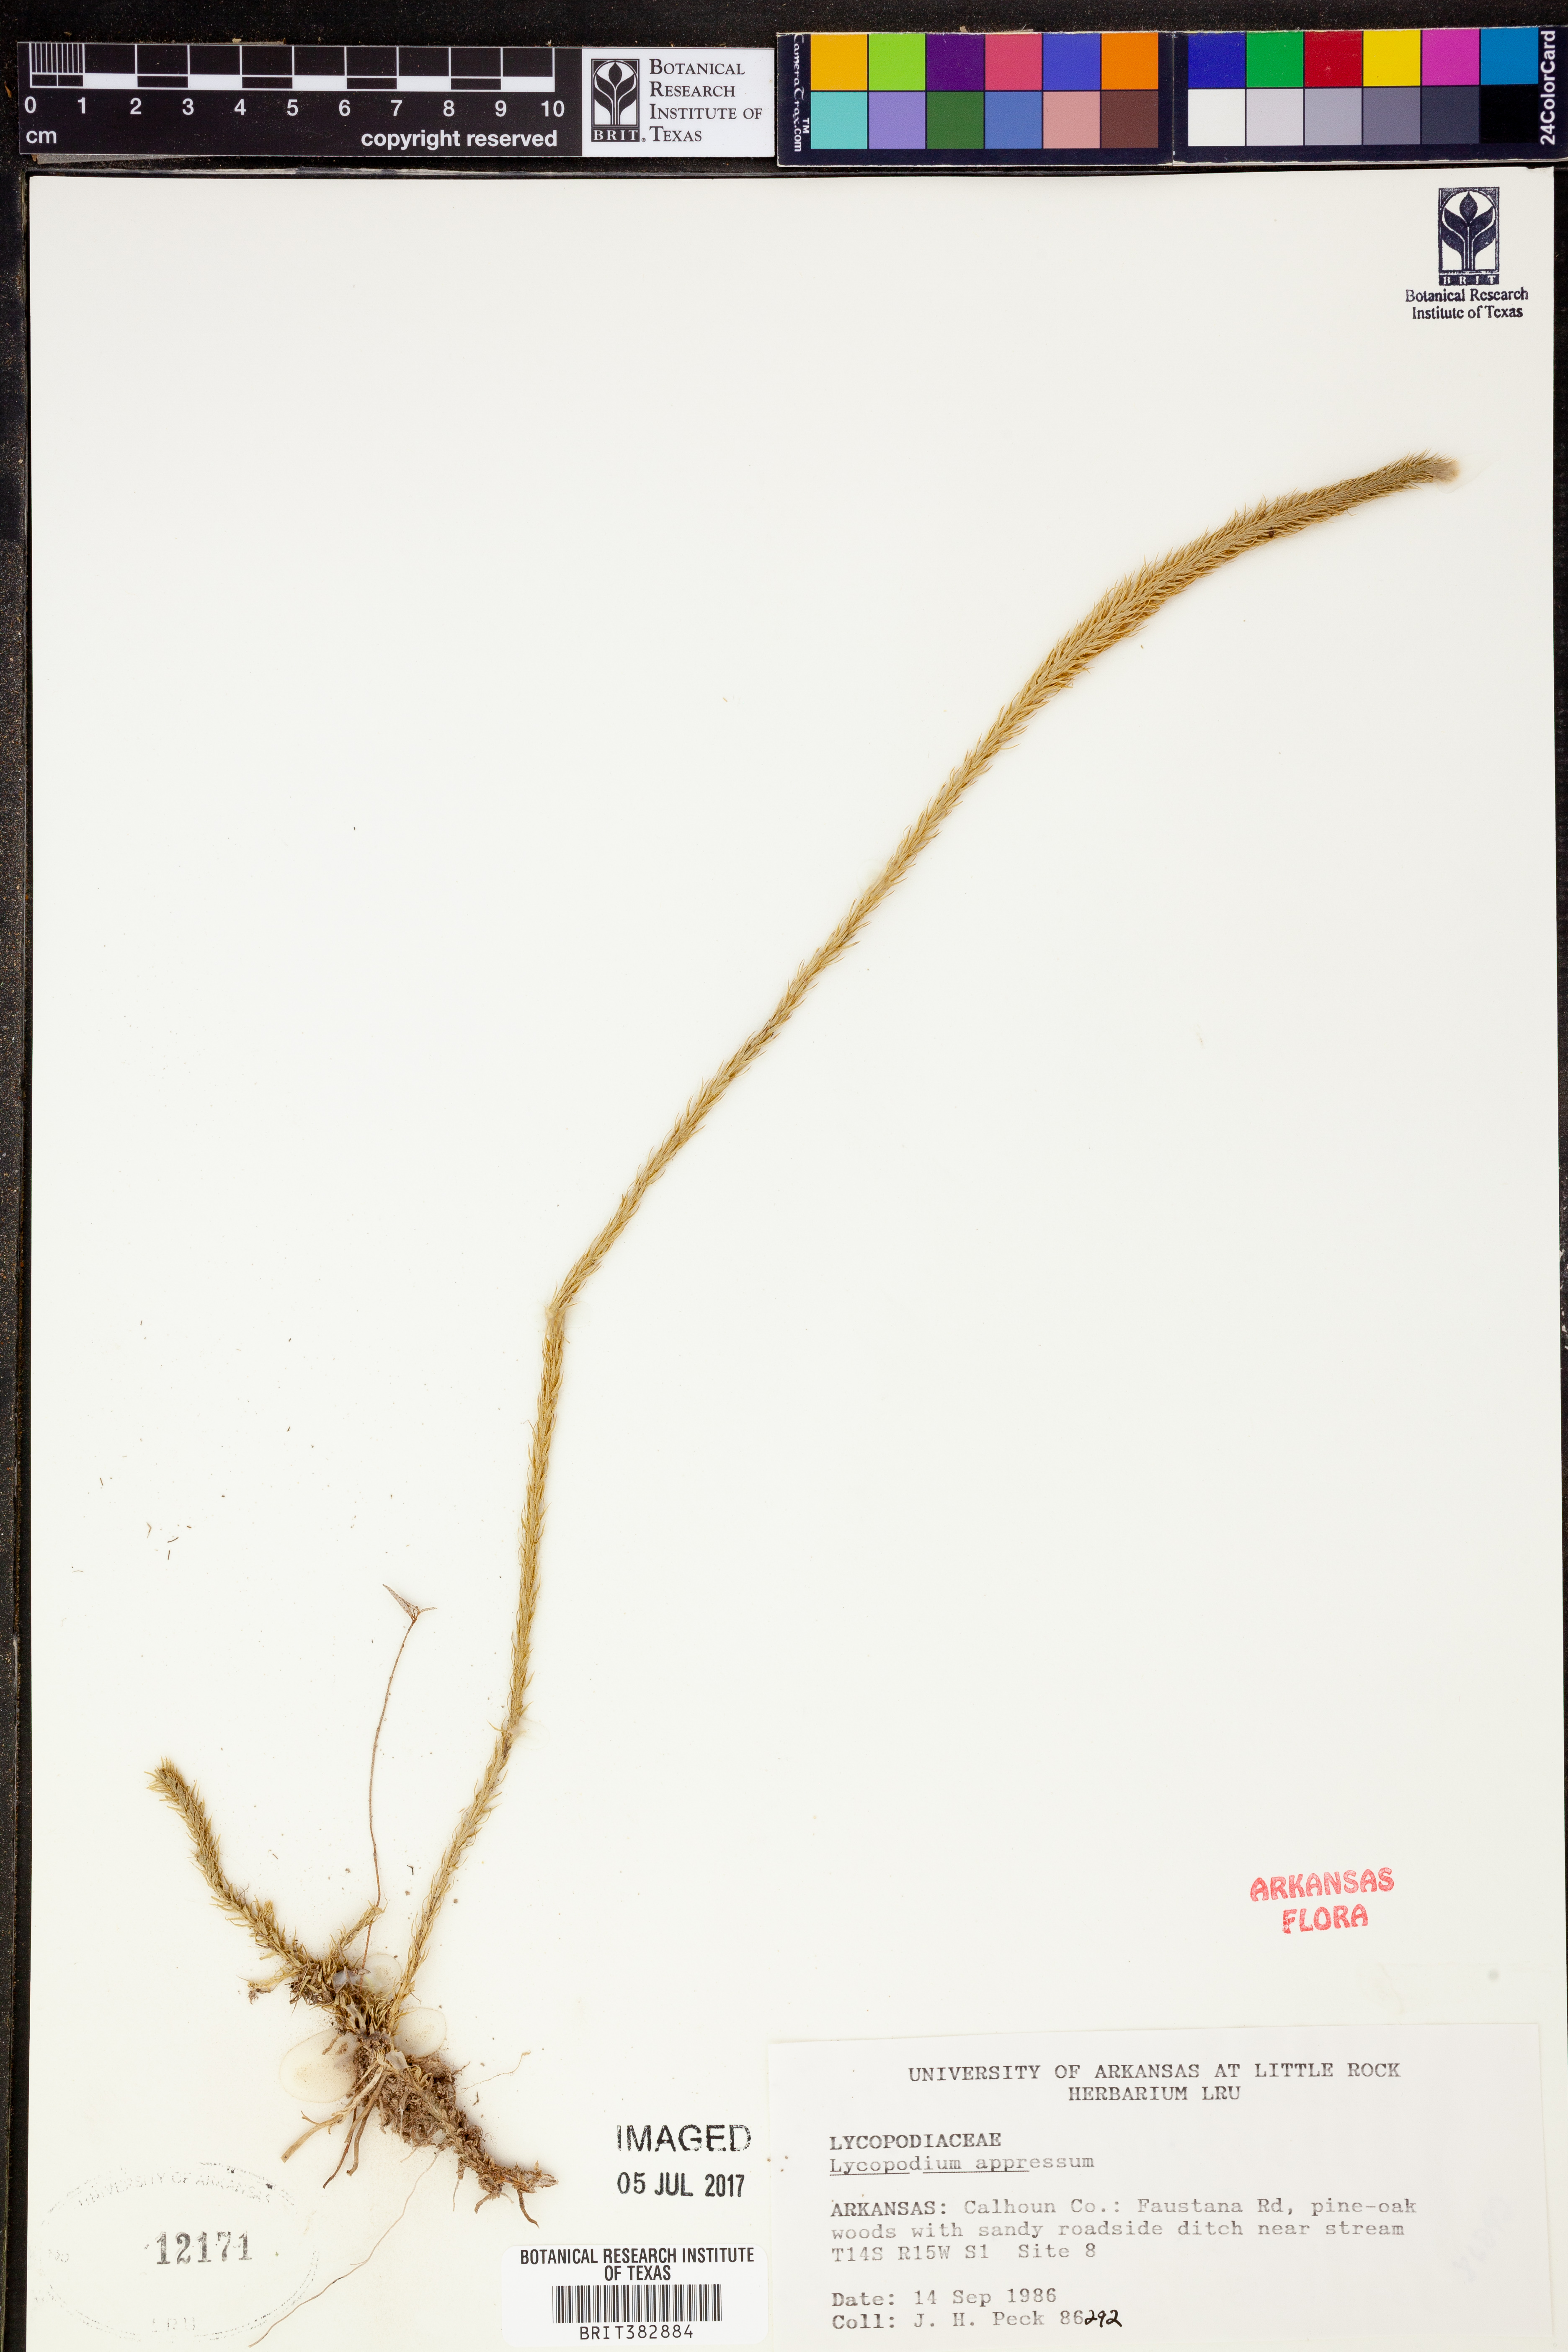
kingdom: Plantae
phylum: Tracheophyta
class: Lycopodiopsida
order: Lycopodiales
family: Lycopodiaceae
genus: Lycopodiella
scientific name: Lycopodiella appressa
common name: Appressed bog clubmoss
